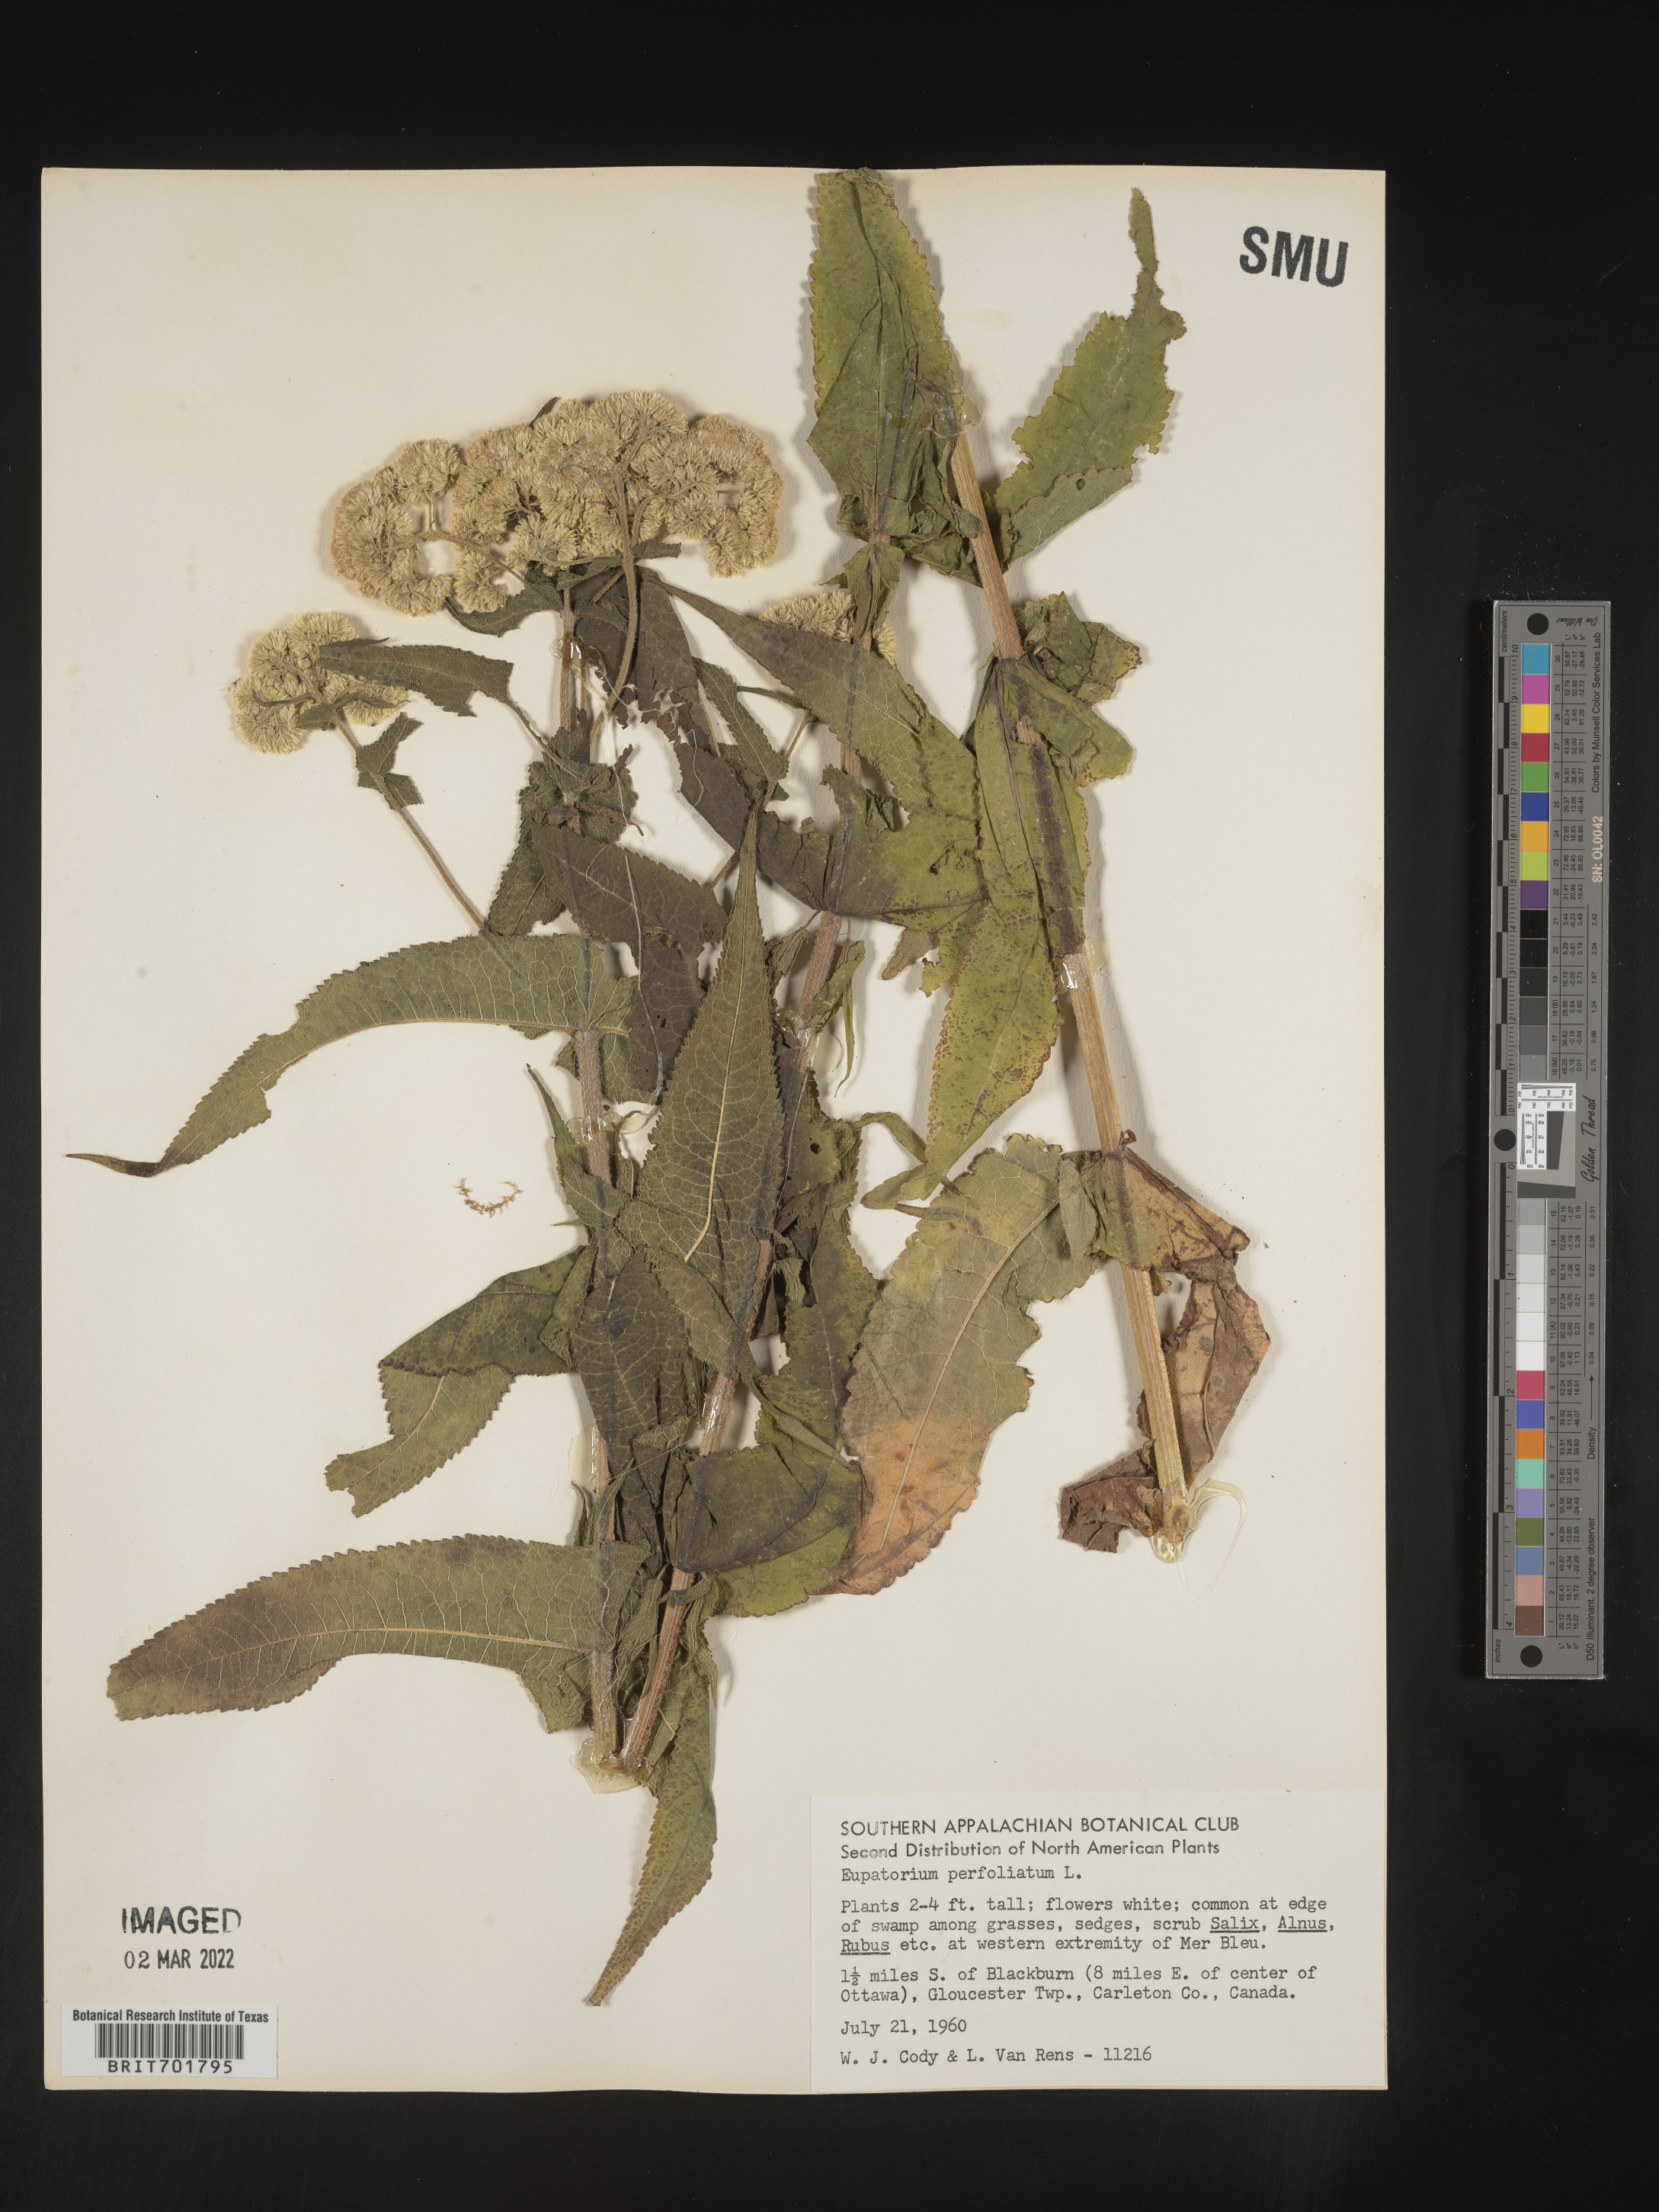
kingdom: Plantae
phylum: Tracheophyta
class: Magnoliopsida
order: Asterales
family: Asteraceae
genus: Eupatorium
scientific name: Eupatorium perfoliatum
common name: Boneset
